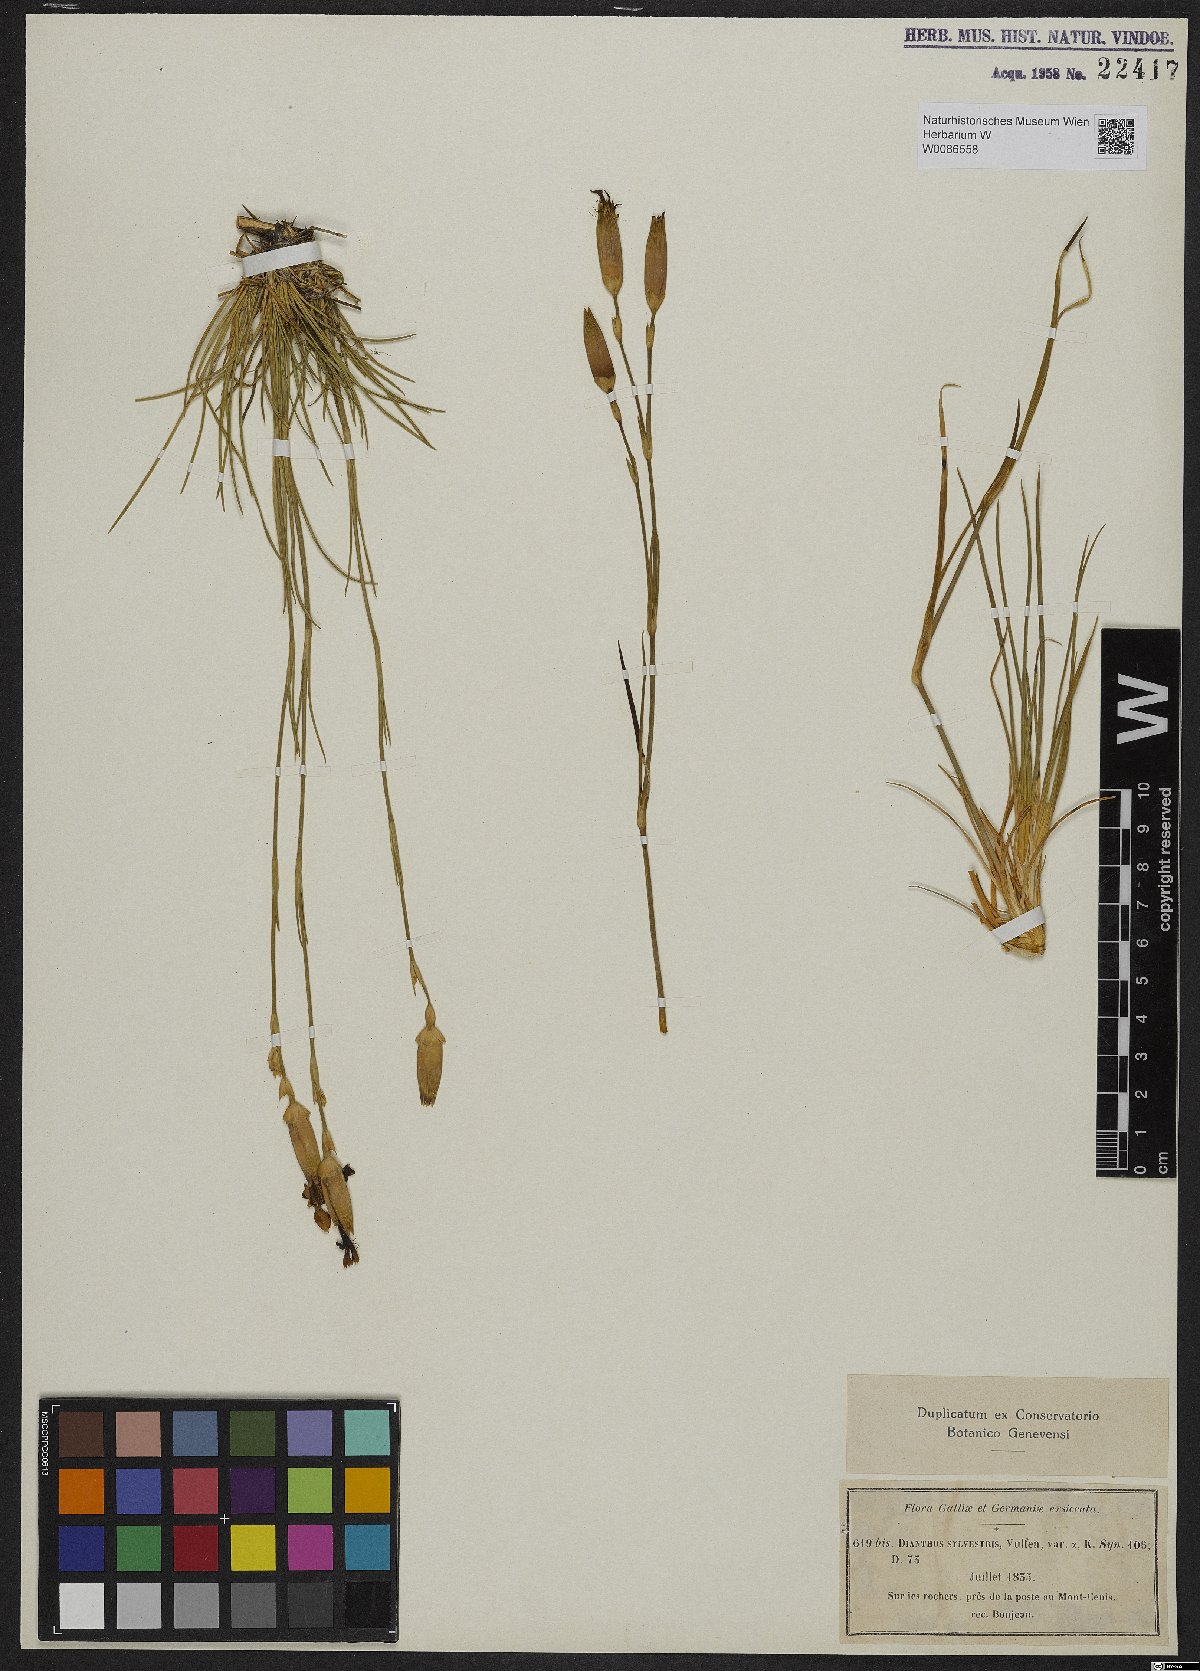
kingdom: Plantae
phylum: Tracheophyta
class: Magnoliopsida
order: Caryophyllales
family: Caryophyllaceae
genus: Dianthus
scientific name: Dianthus sylvestris
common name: Wood pink
